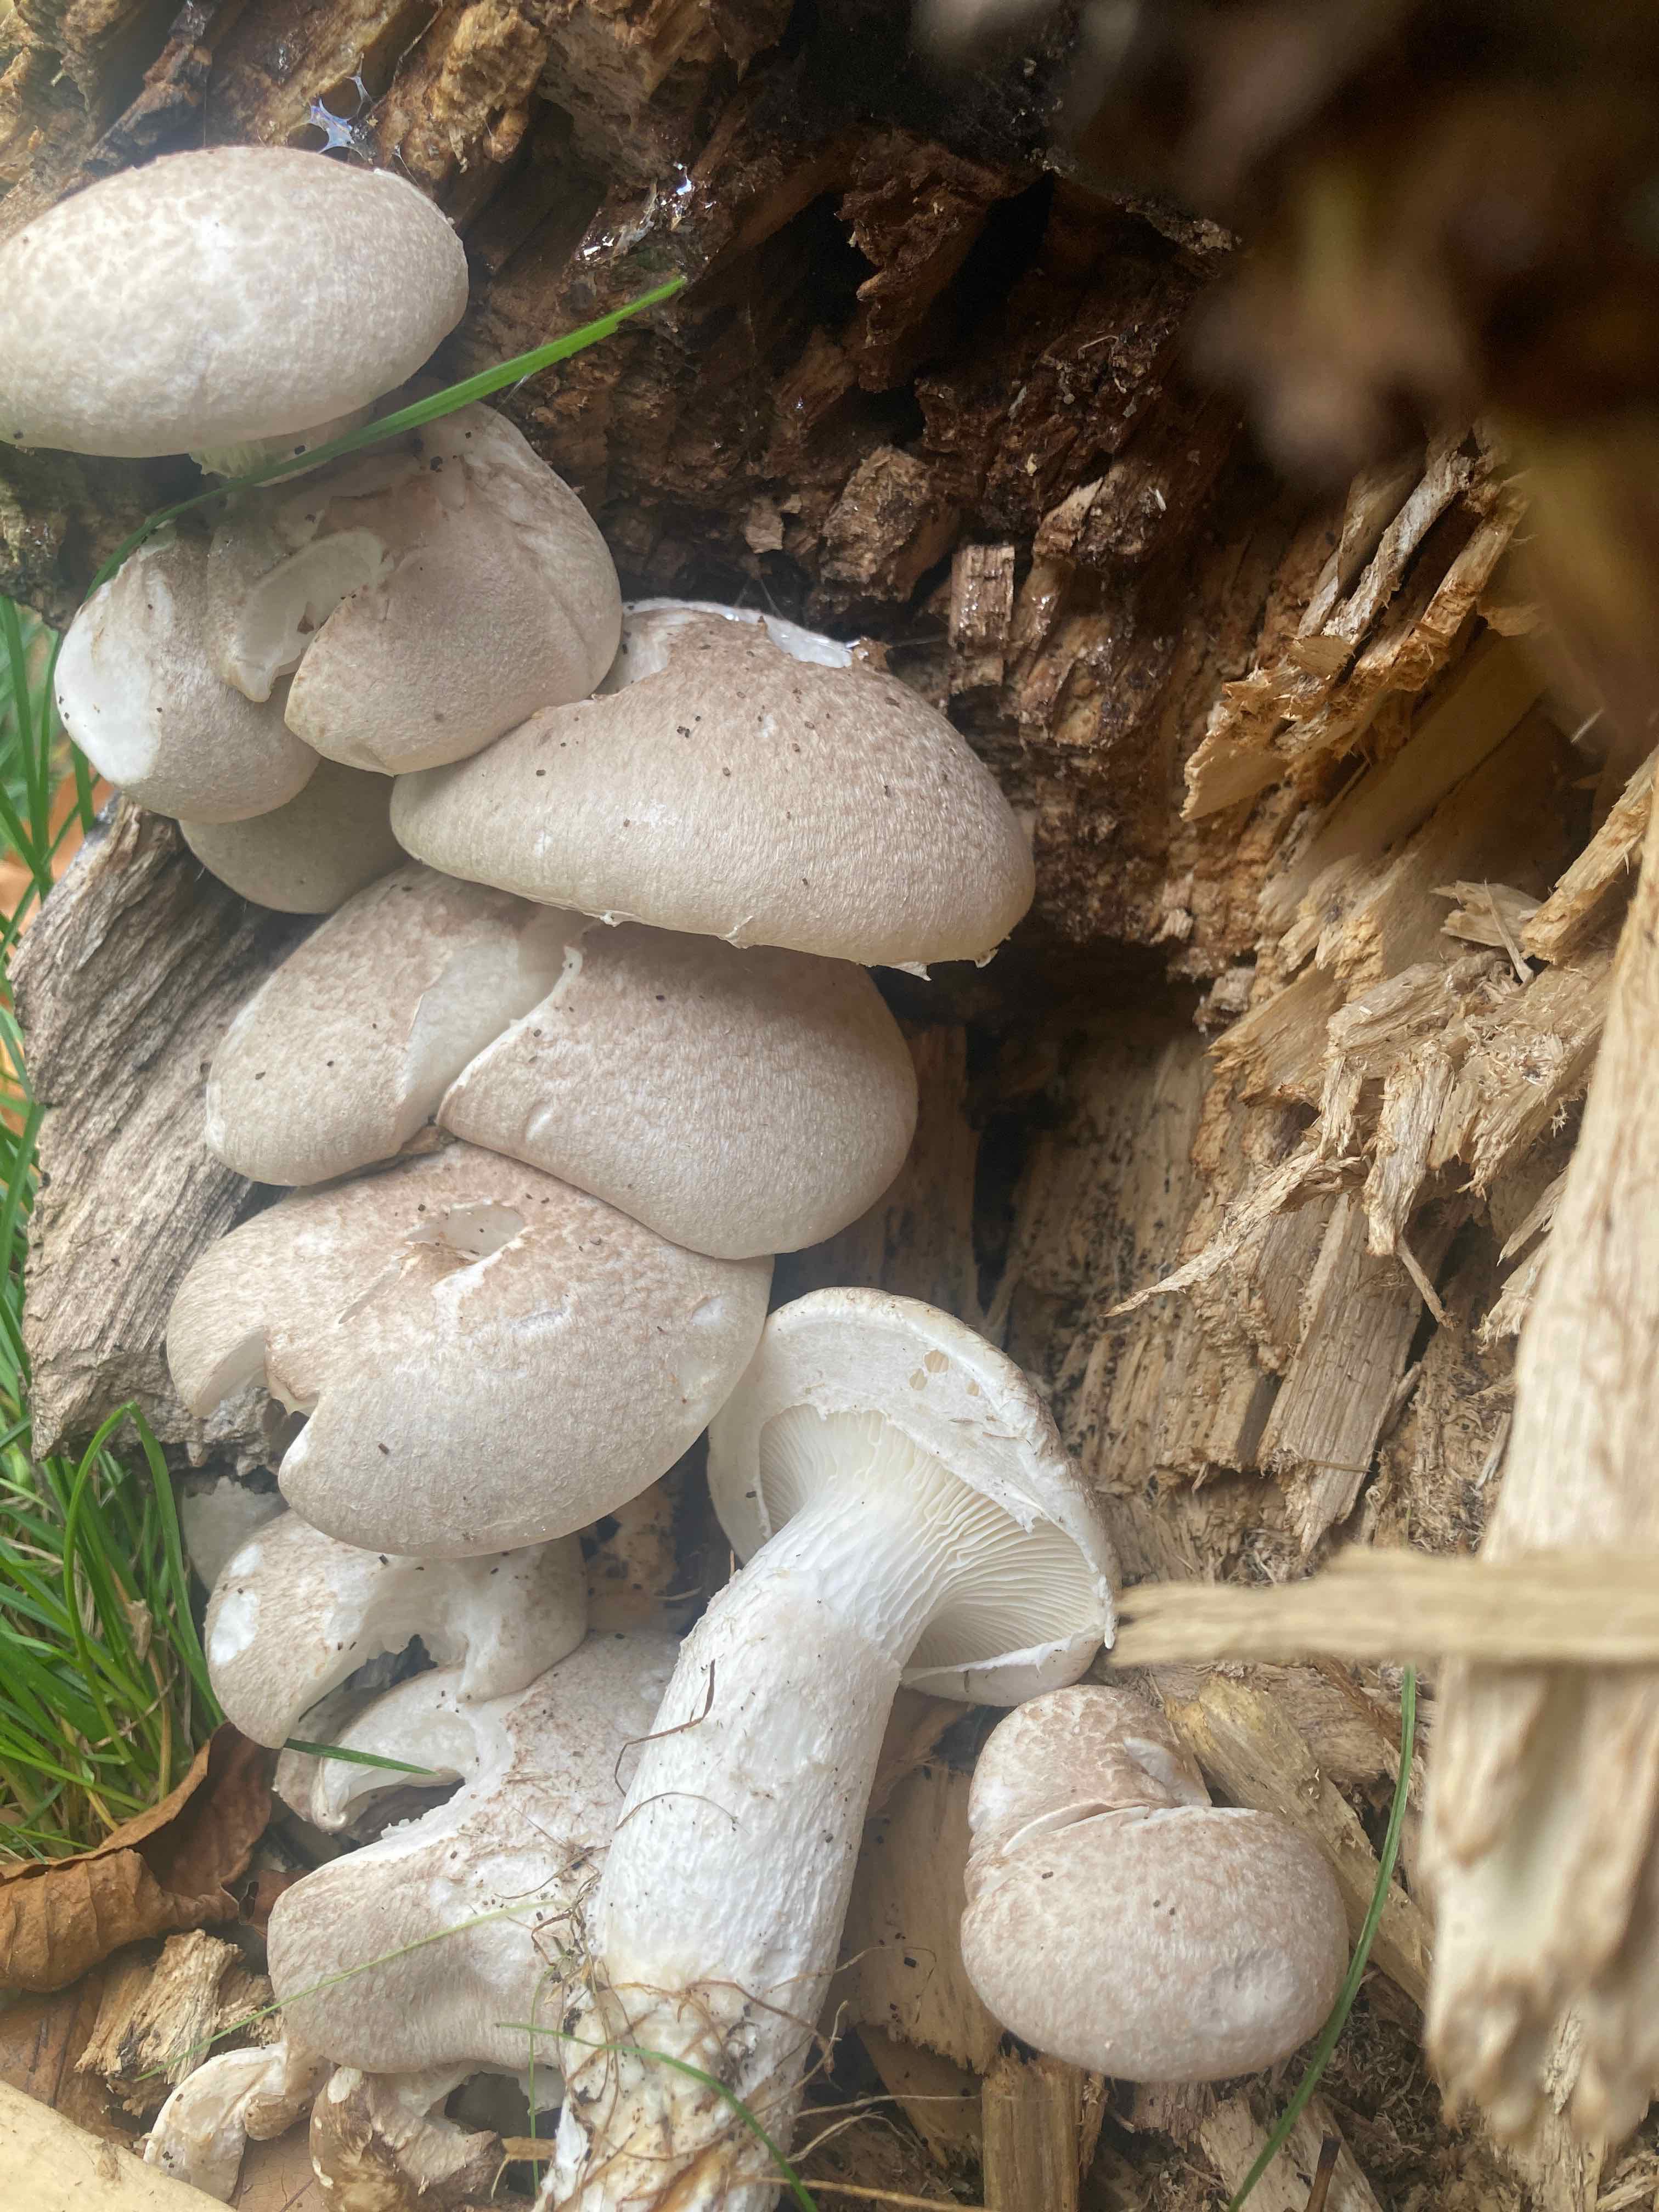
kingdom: Fungi
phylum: Basidiomycota
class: Agaricomycetes
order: Agaricales
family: Pleurotaceae
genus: Pleurotus
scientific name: Pleurotus dryinus
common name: korkagtig østershat
